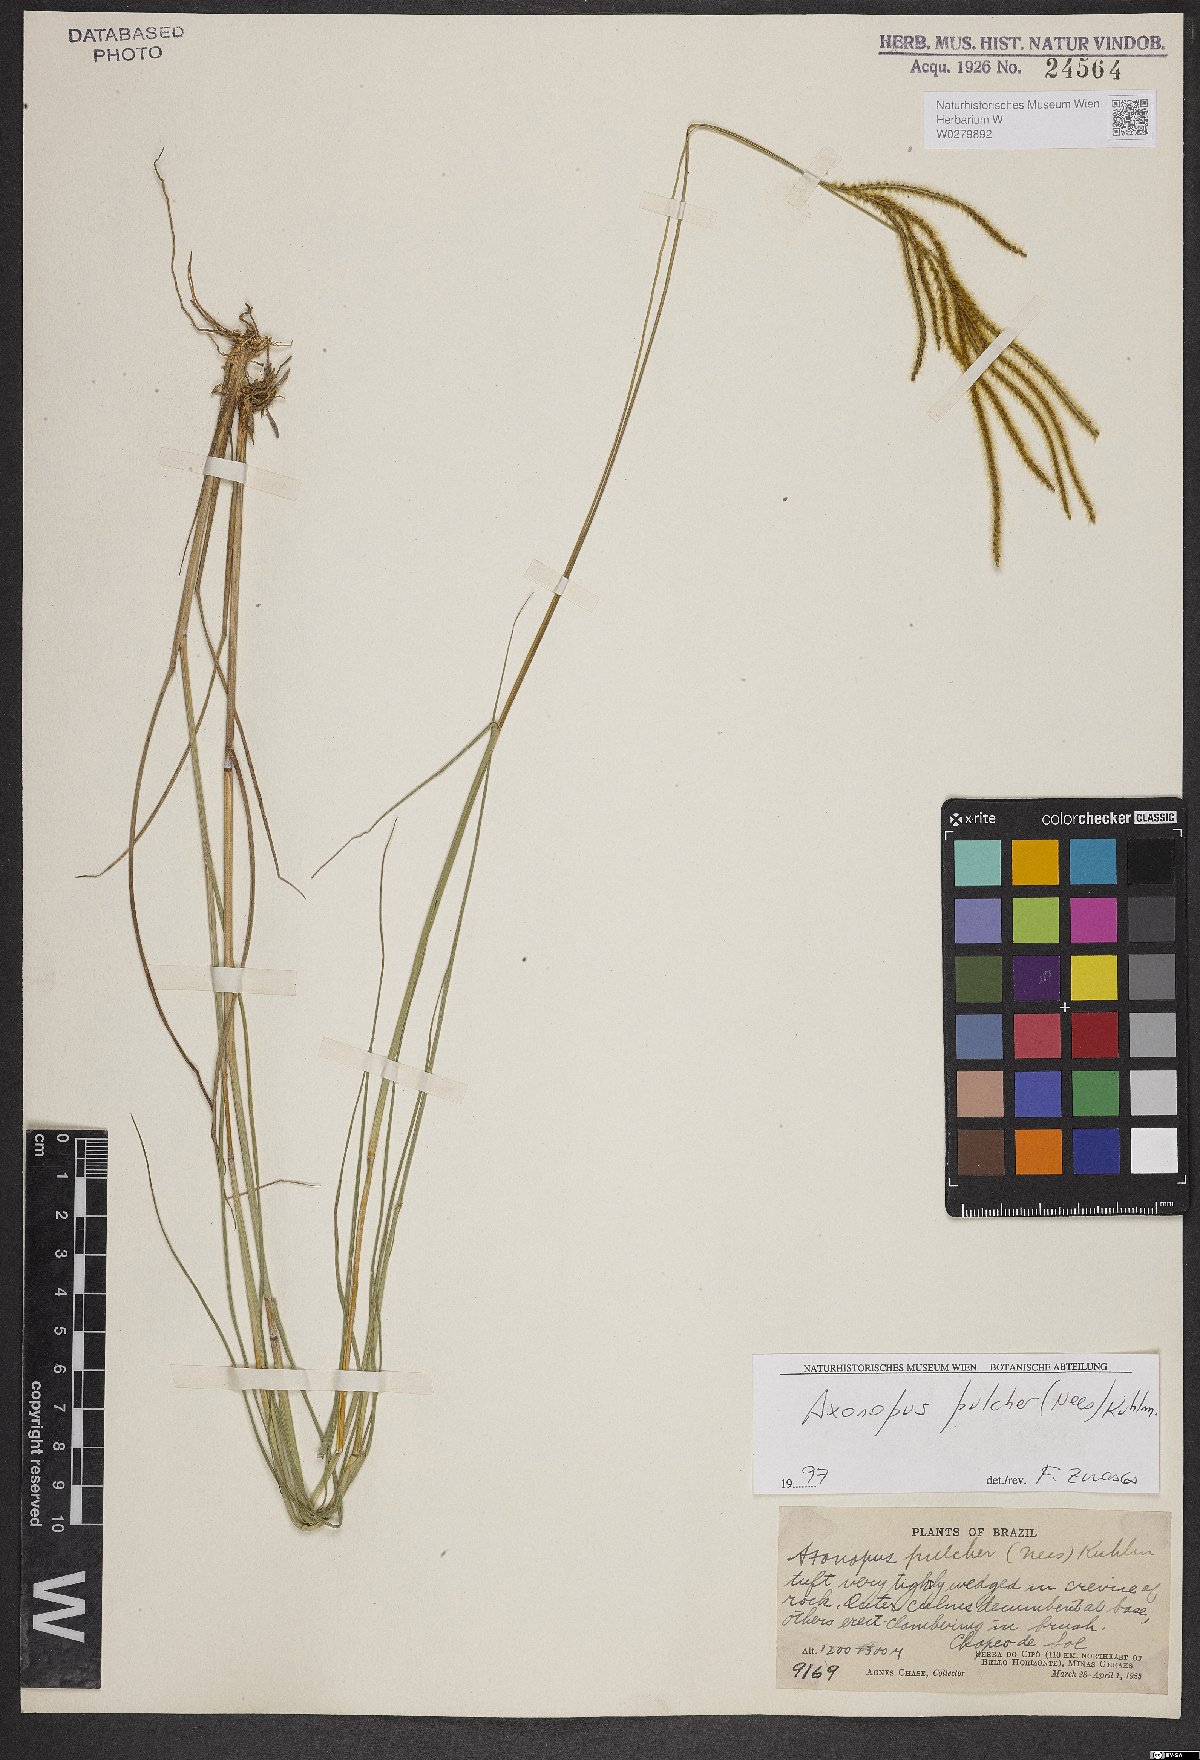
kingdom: Plantae
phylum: Tracheophyta
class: Liliopsida
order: Poales
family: Poaceae
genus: Axonopus
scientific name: Axonopus aureus
